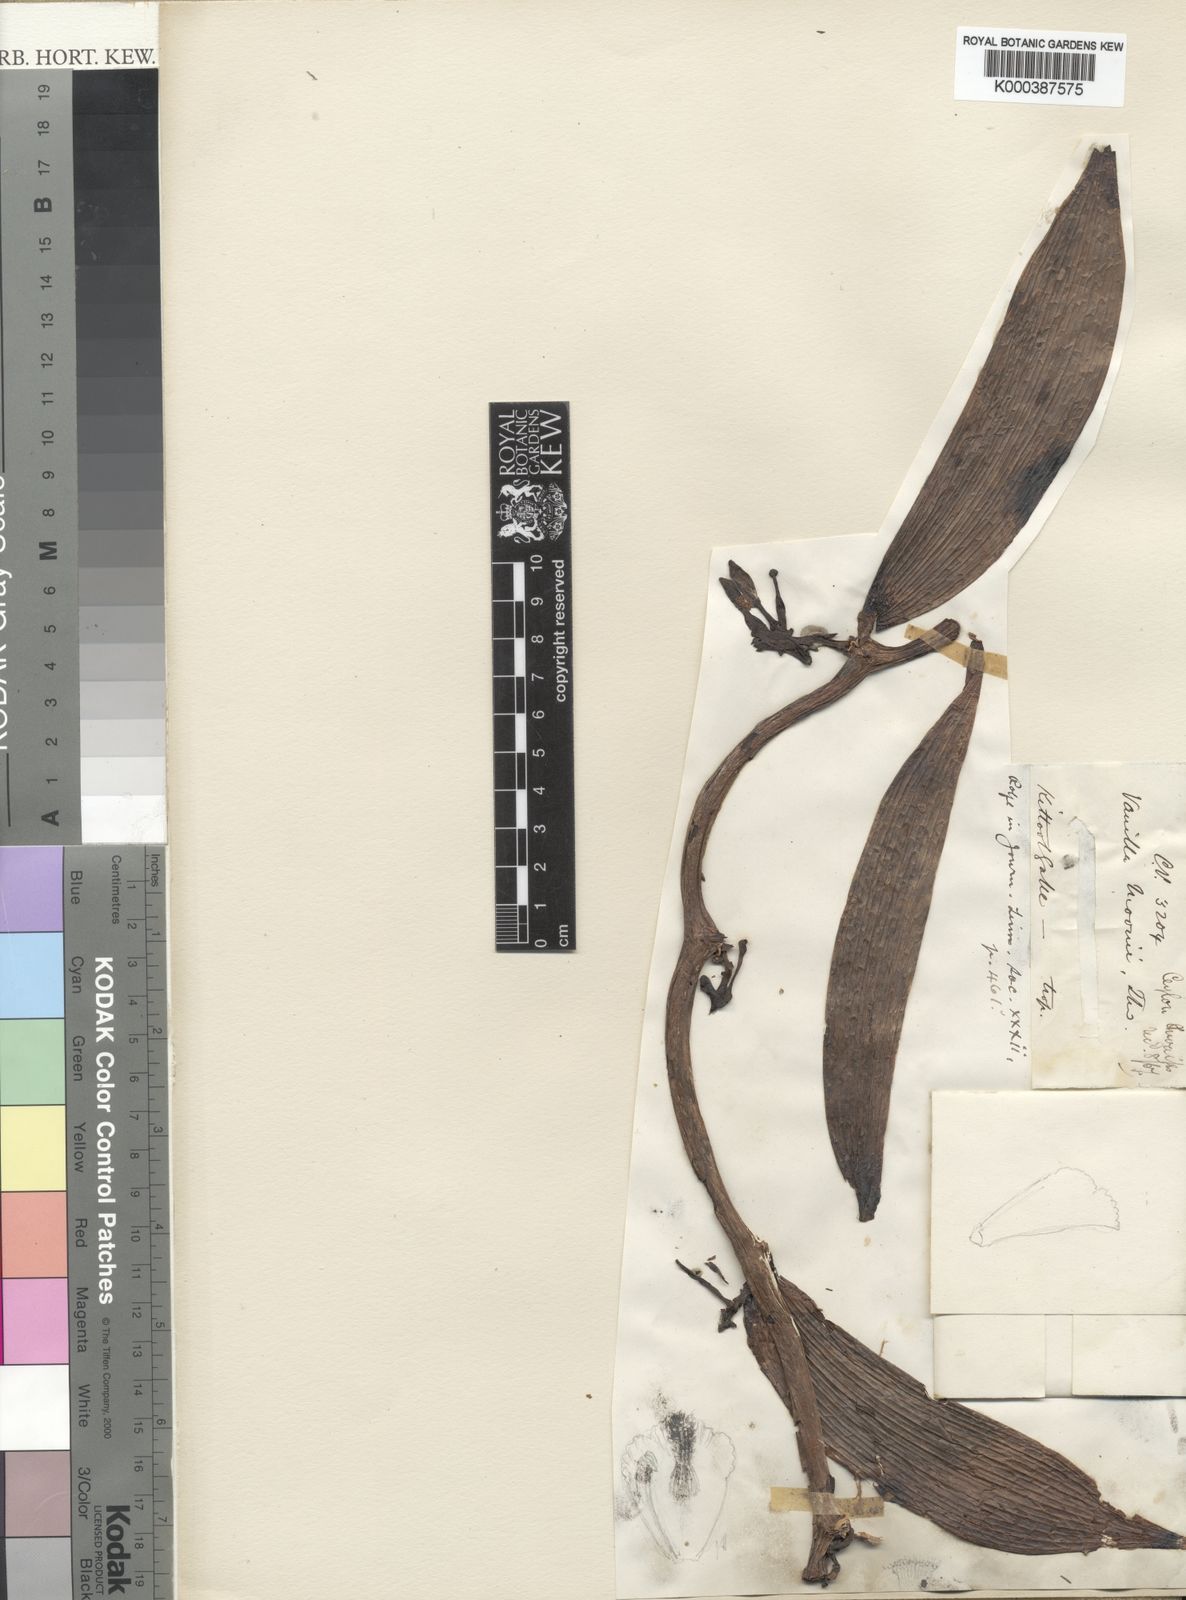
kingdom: Plantae
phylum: Tracheophyta
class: Liliopsida
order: Asparagales
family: Orchidaceae
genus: Vanilla
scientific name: Vanilla moonii
